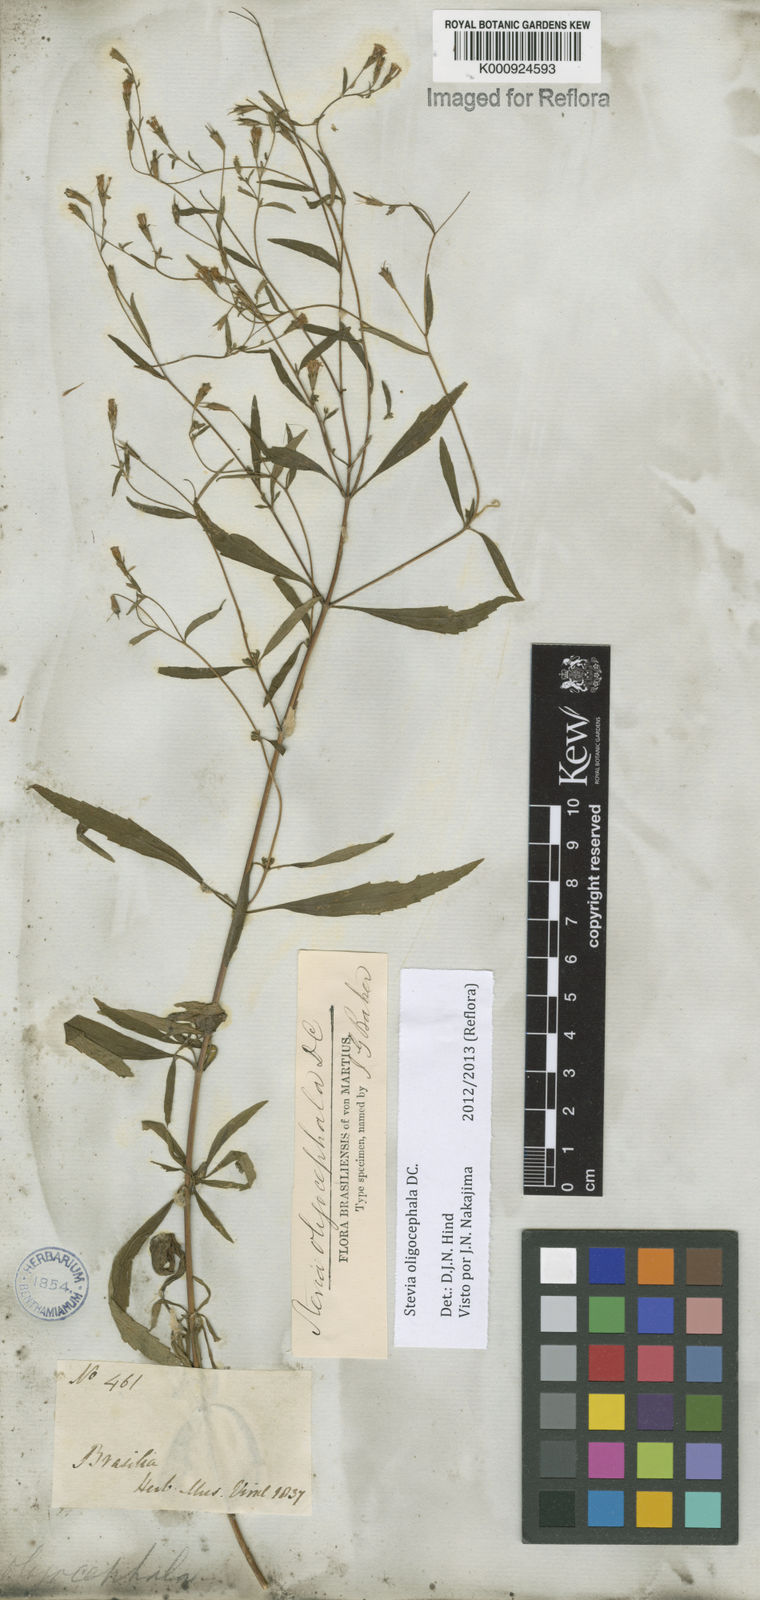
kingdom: Plantae
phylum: Tracheophyta
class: Magnoliopsida
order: Asterales
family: Asteraceae
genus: Stevia
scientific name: Stevia oligocephala
